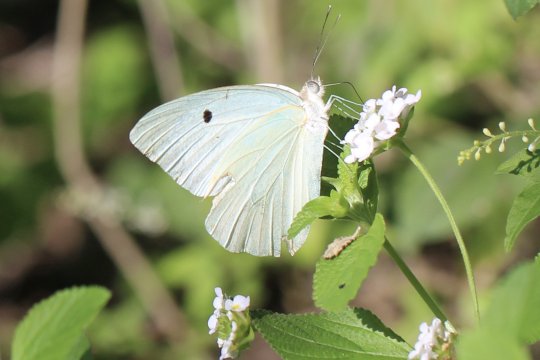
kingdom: Animalia
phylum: Arthropoda
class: Insecta
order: Lepidoptera
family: Pieridae
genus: Ganyra
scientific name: Ganyra josephina
